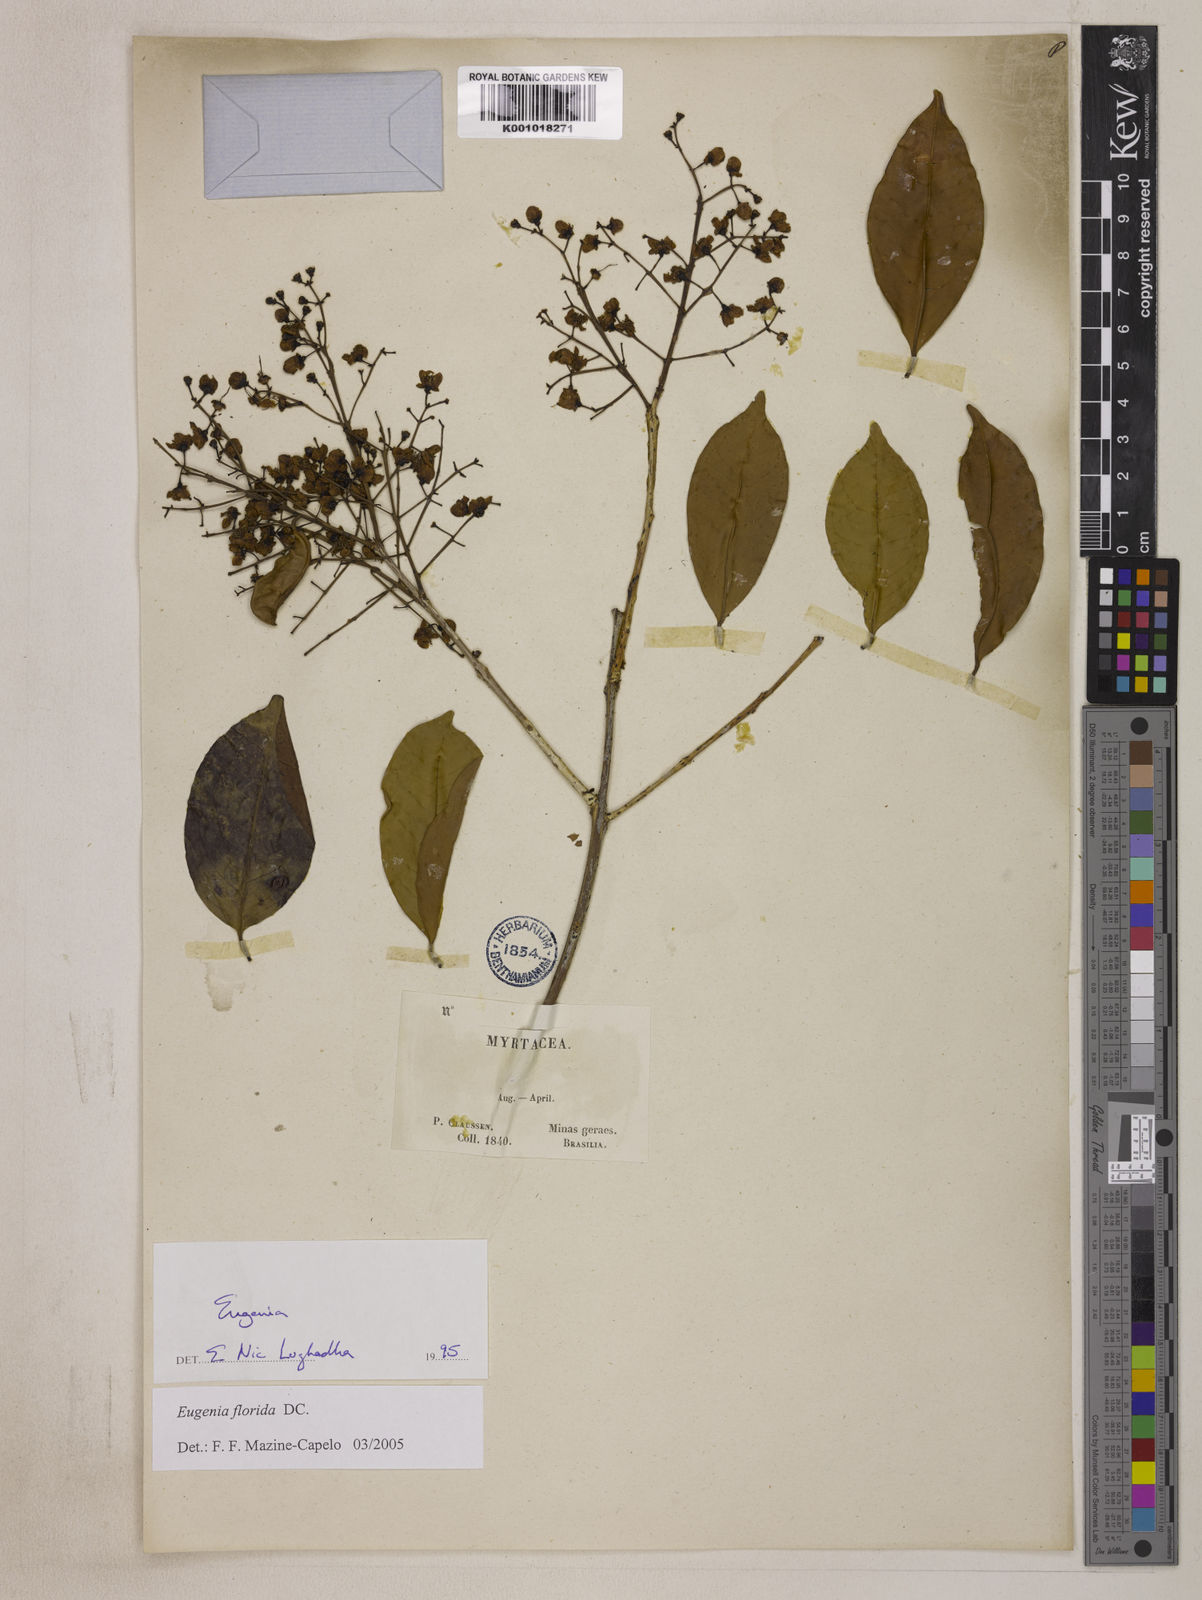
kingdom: Plantae
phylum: Tracheophyta
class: Magnoliopsida
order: Myrtales
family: Myrtaceae
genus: Eugenia
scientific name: Eugenia florida
